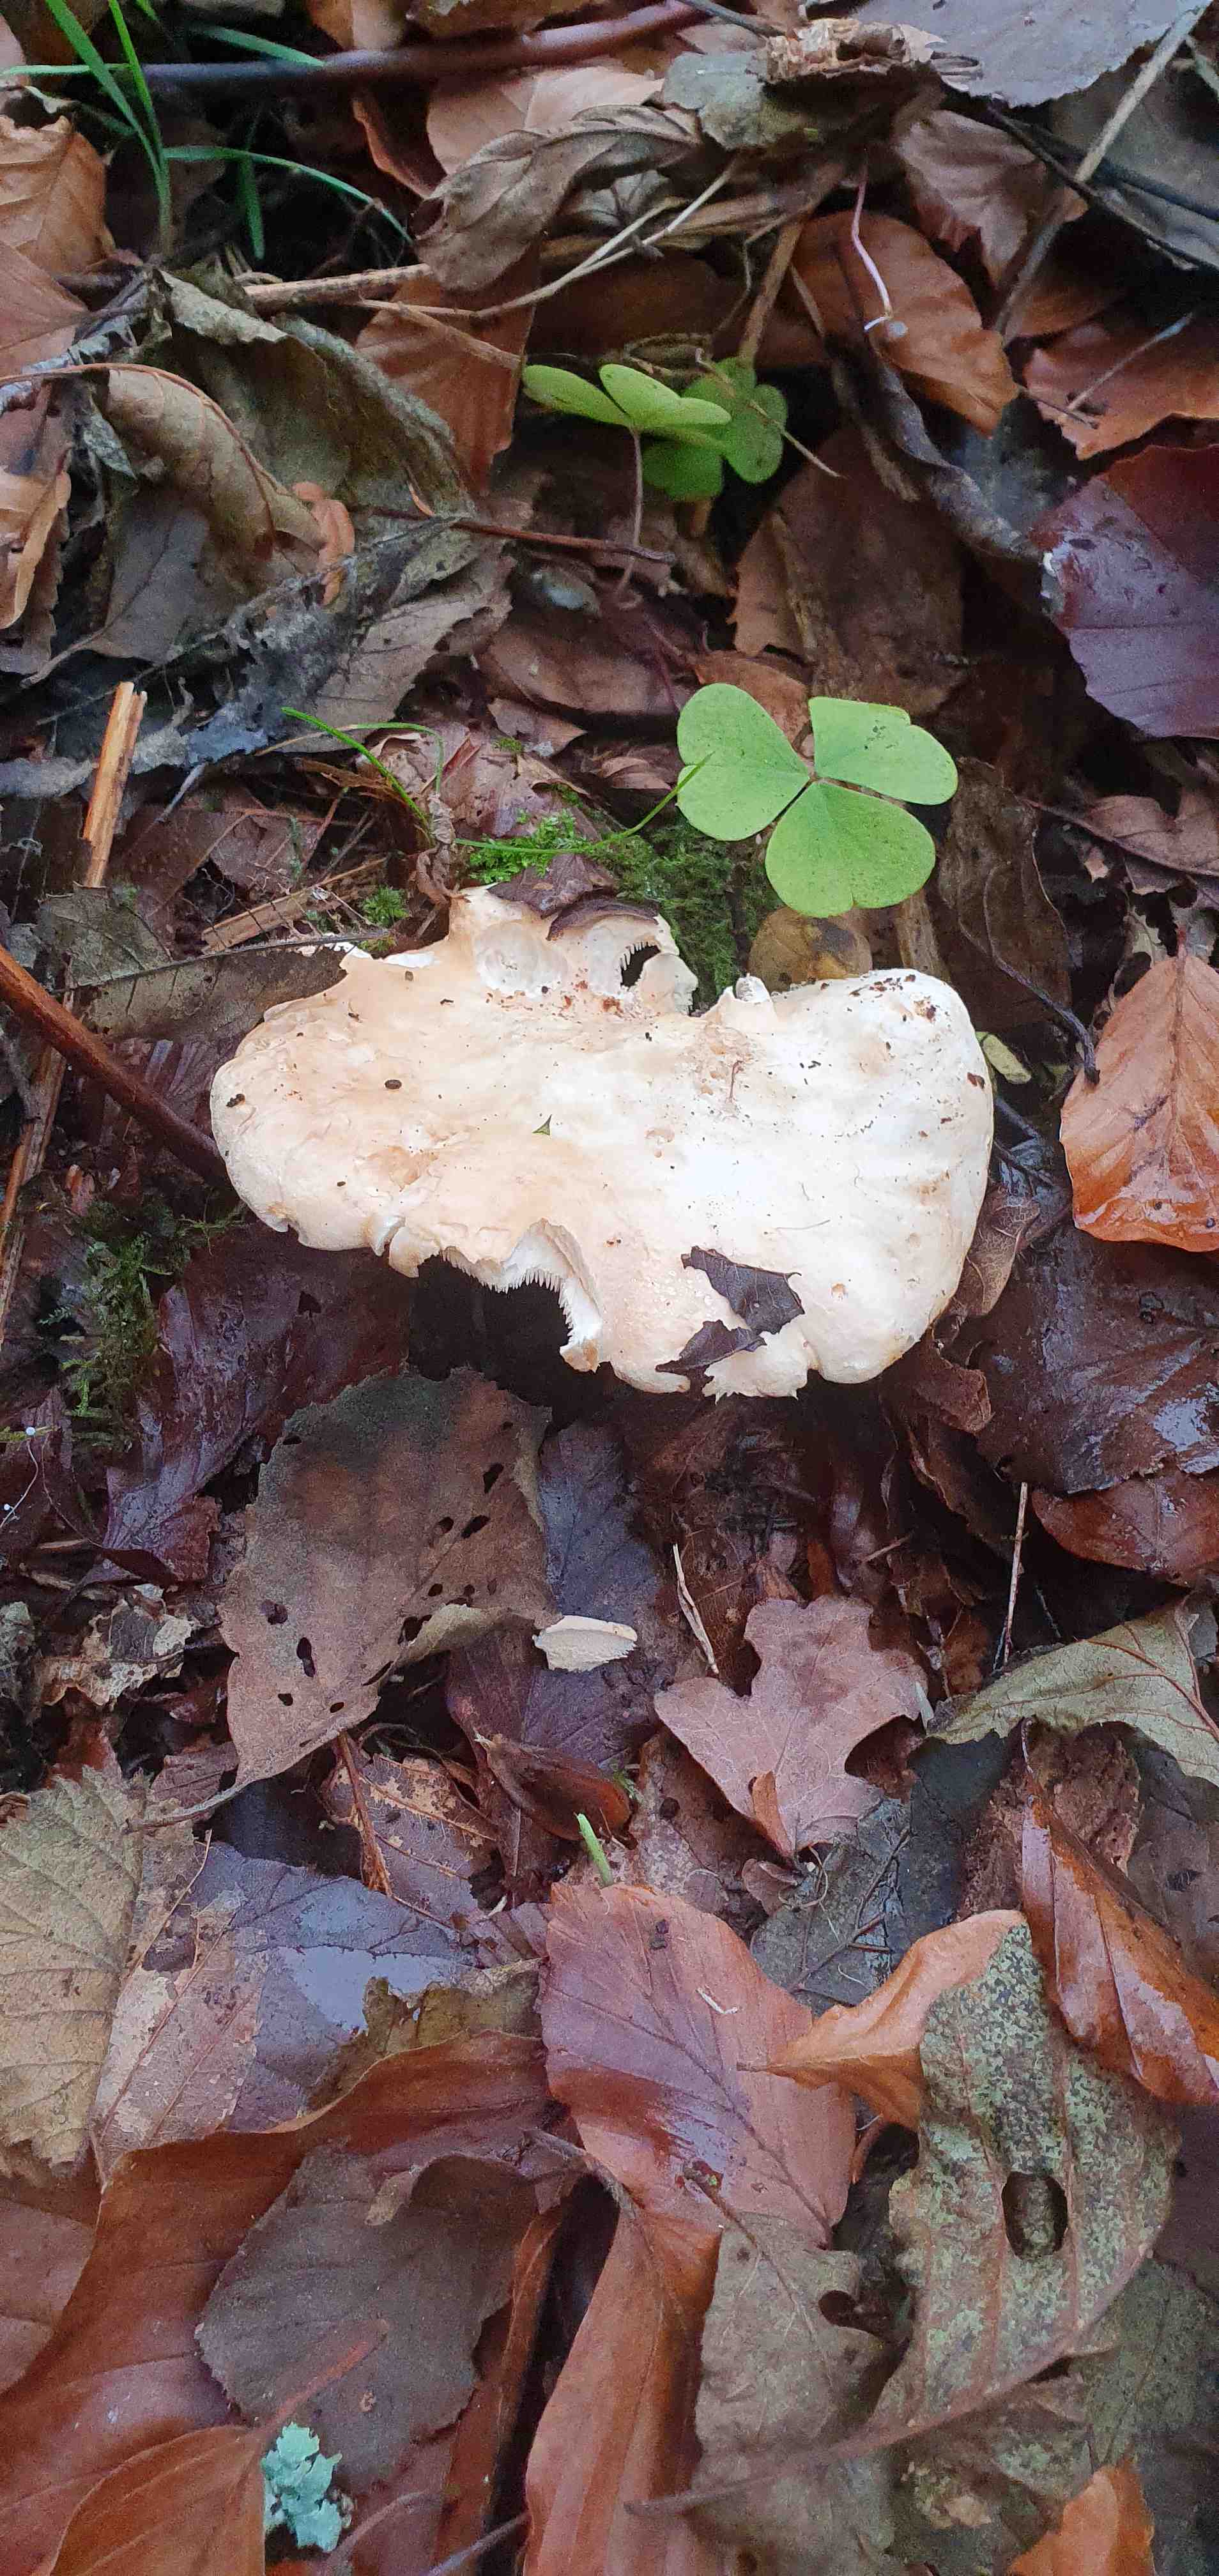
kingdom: Fungi
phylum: Basidiomycota
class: Agaricomycetes
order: Cantharellales
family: Hydnaceae
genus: Hydnum
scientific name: Hydnum
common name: pigsvamp
